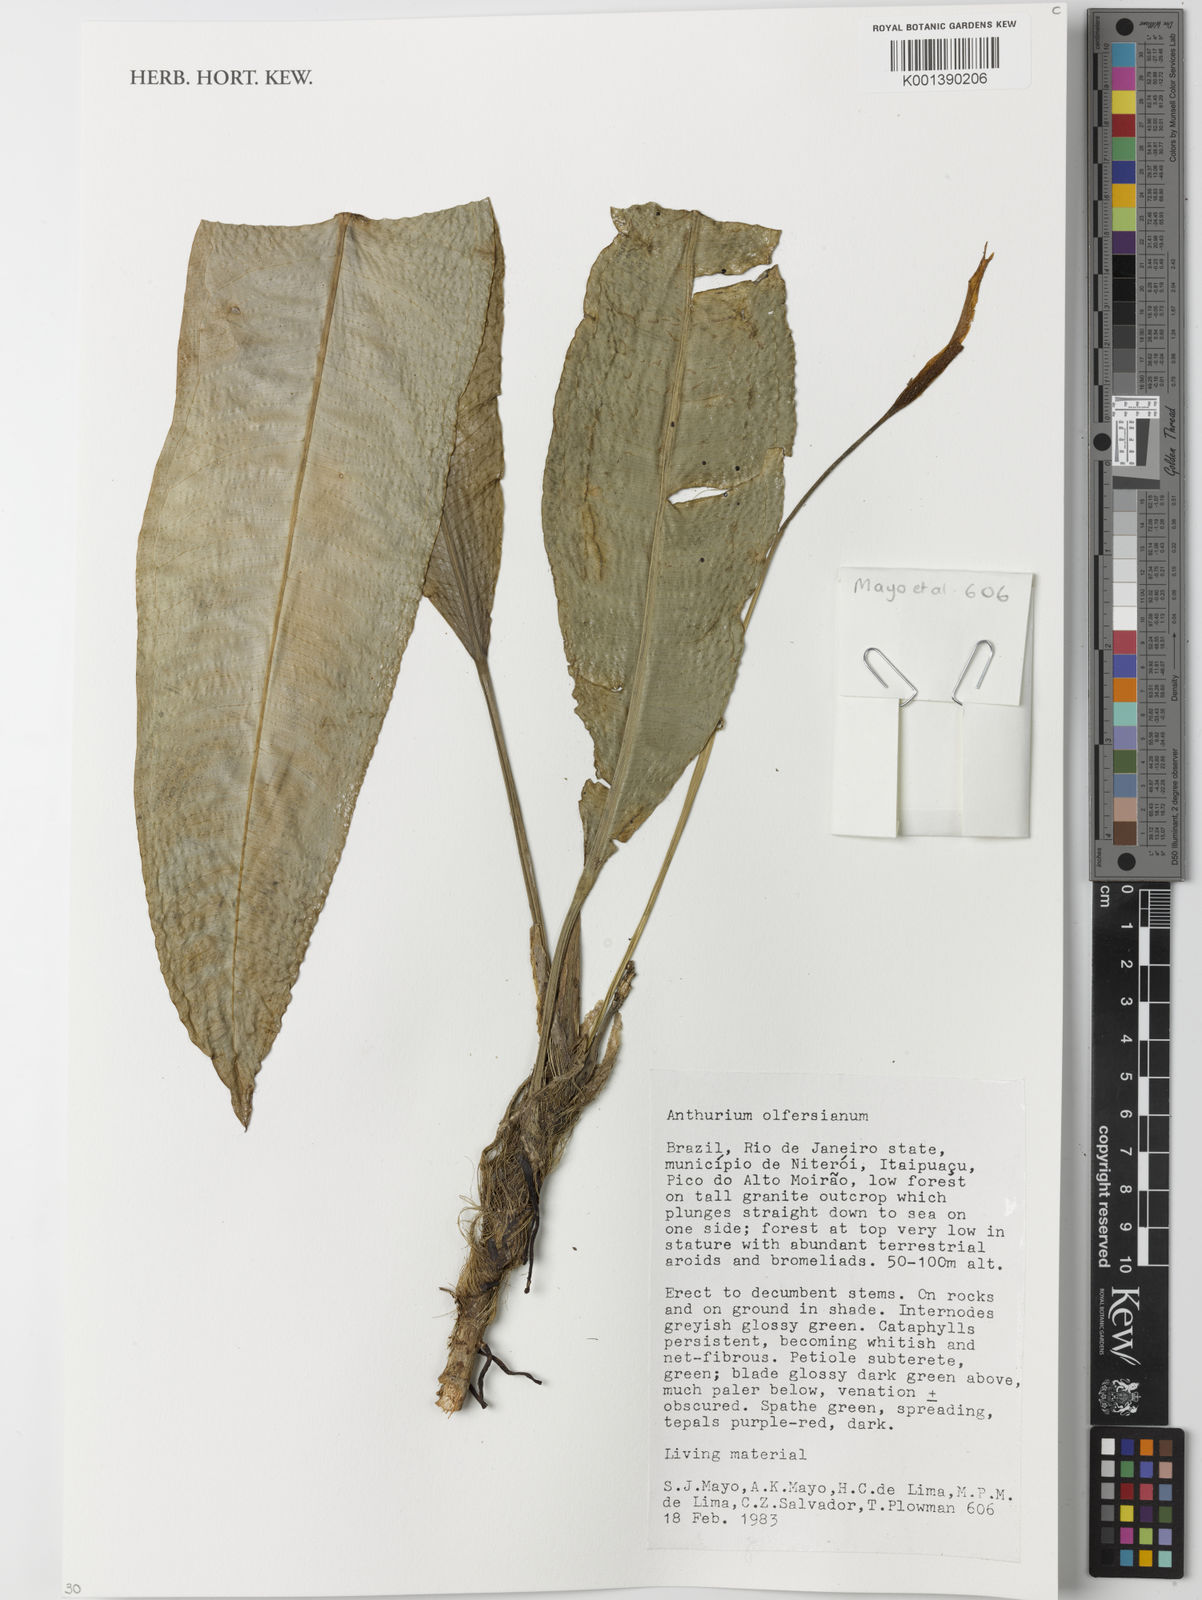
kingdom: Plantae
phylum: Tracheophyta
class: Liliopsida
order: Alismatales
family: Araceae
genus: Anthurium
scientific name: Anthurium parasiticum
